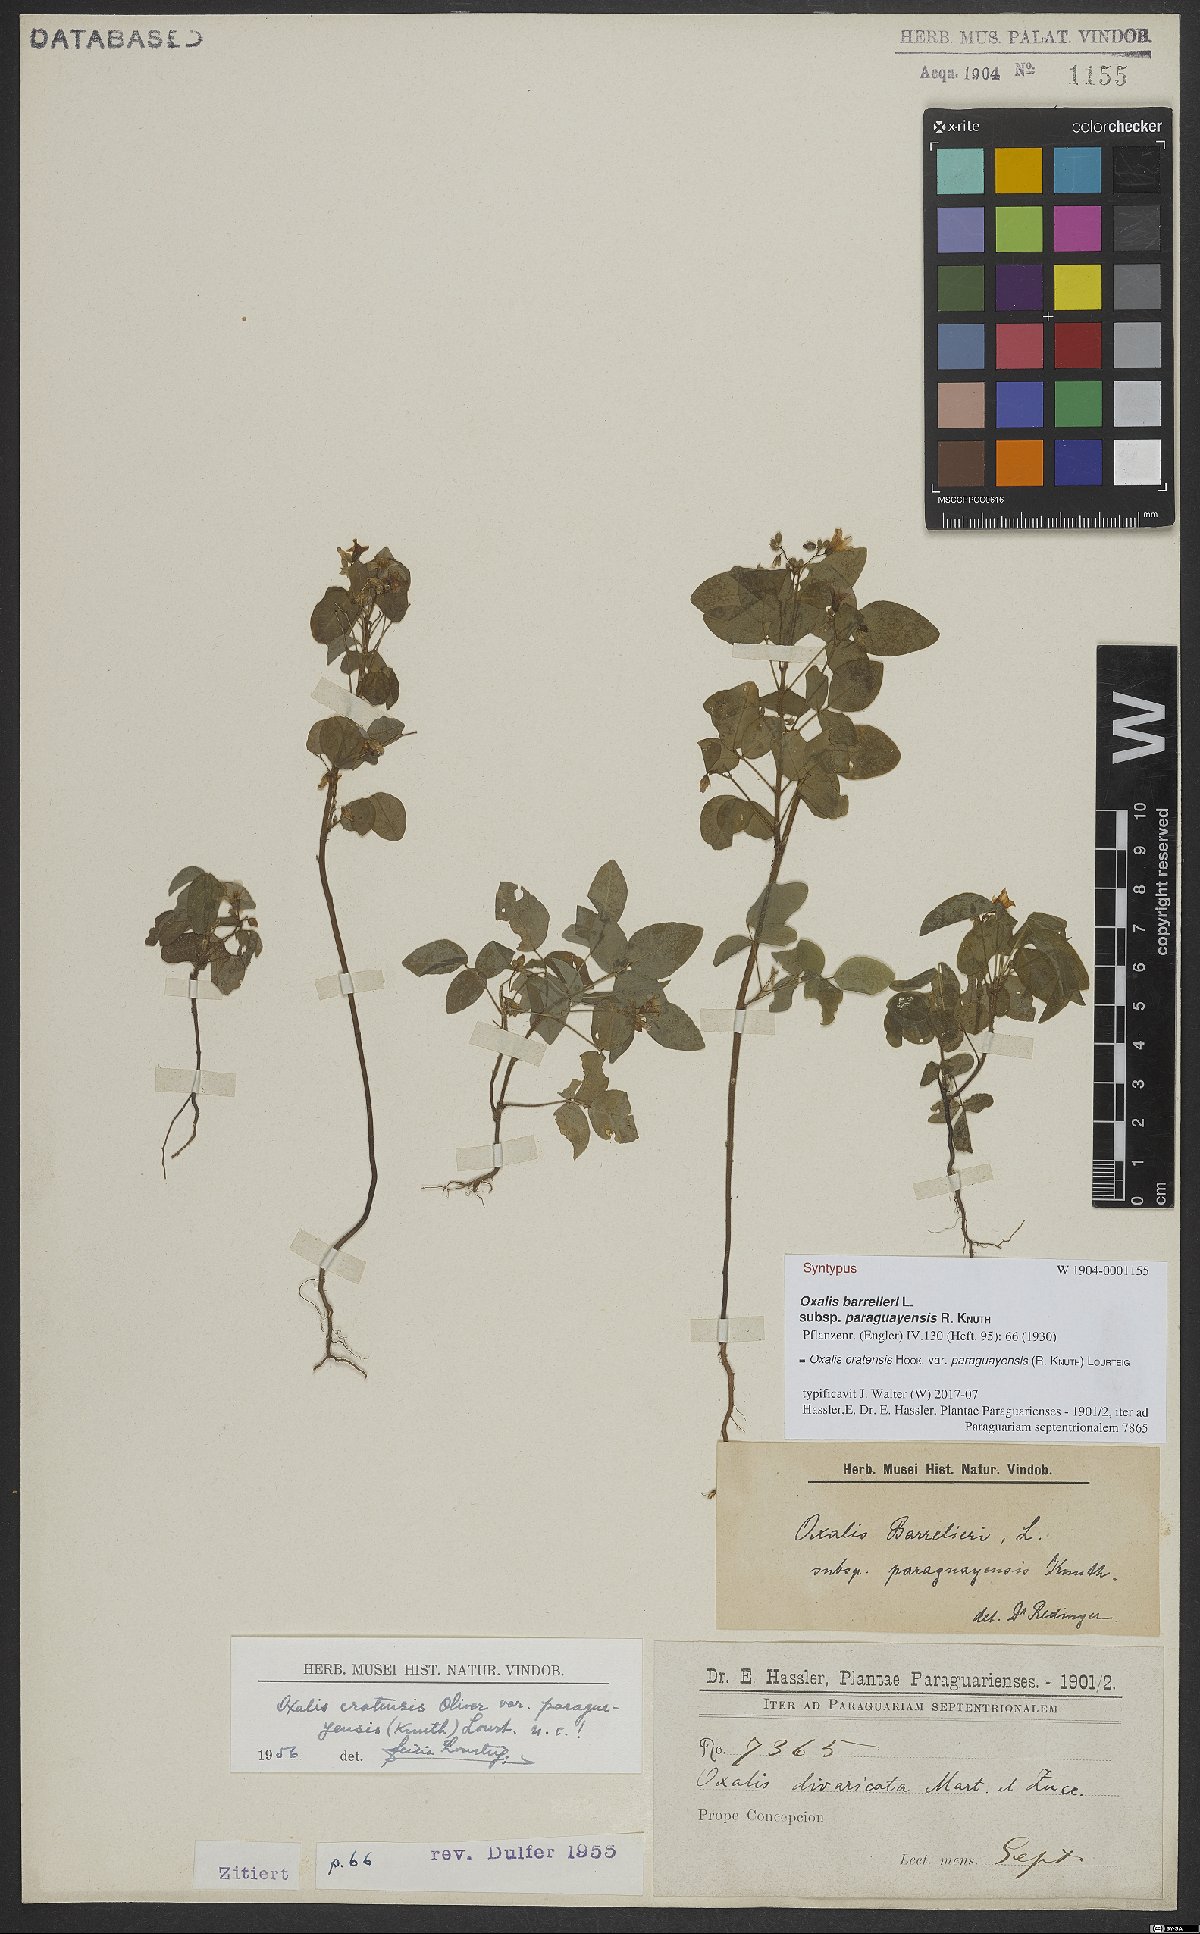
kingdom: Plantae
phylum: Tracheophyta
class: Magnoliopsida
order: Oxalidales
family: Oxalidaceae
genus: Oxalis
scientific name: Oxalis cratensis
